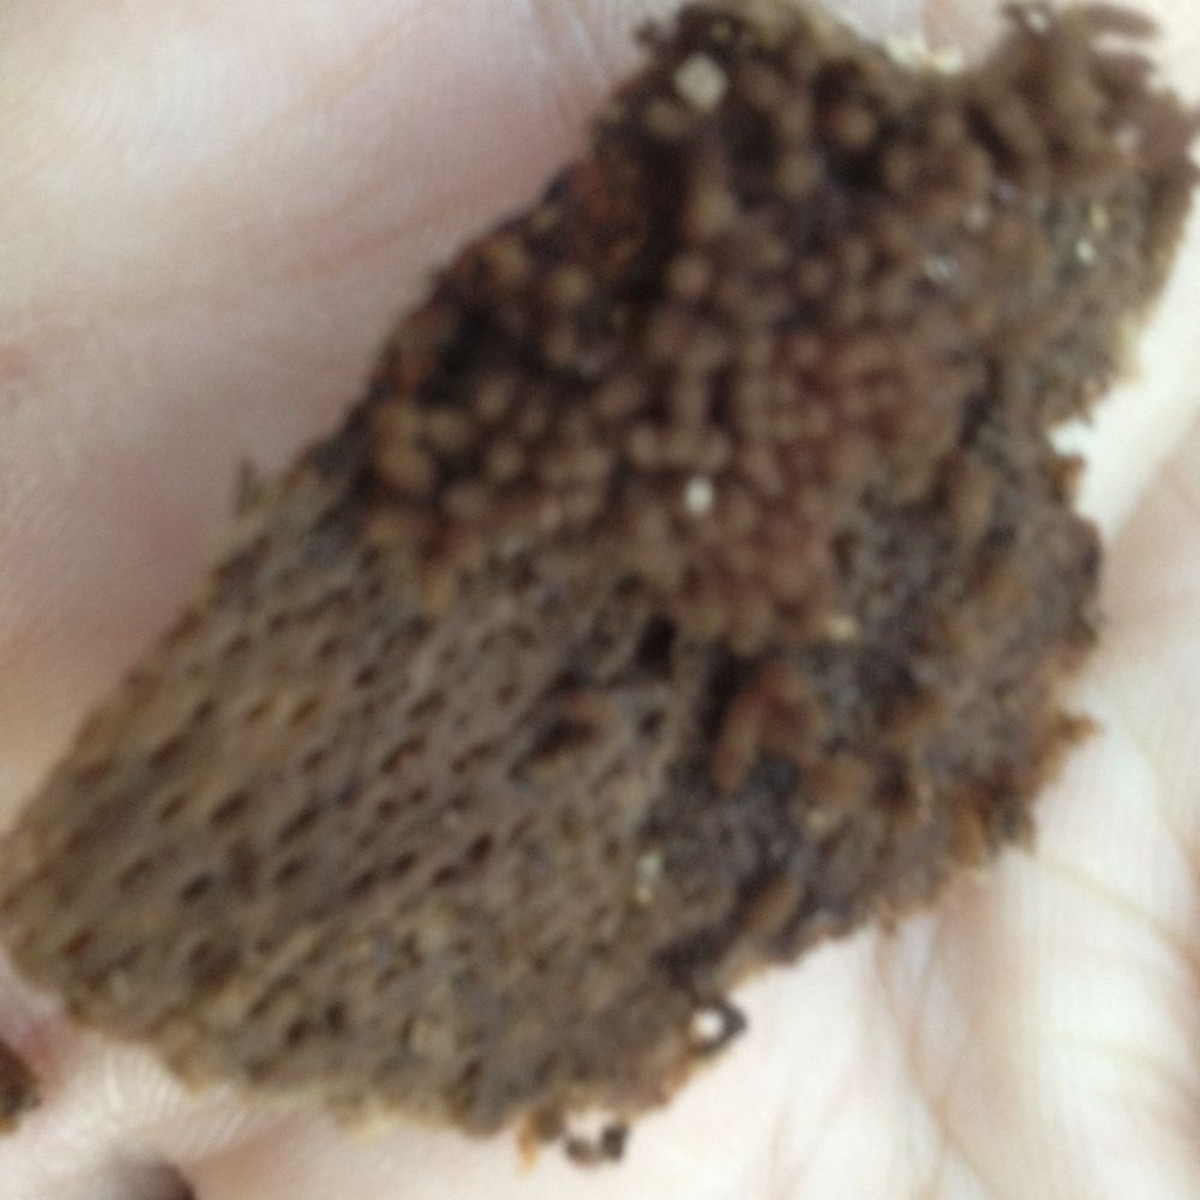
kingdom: Protozoa
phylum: Mycetozoa
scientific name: Mycetozoa
